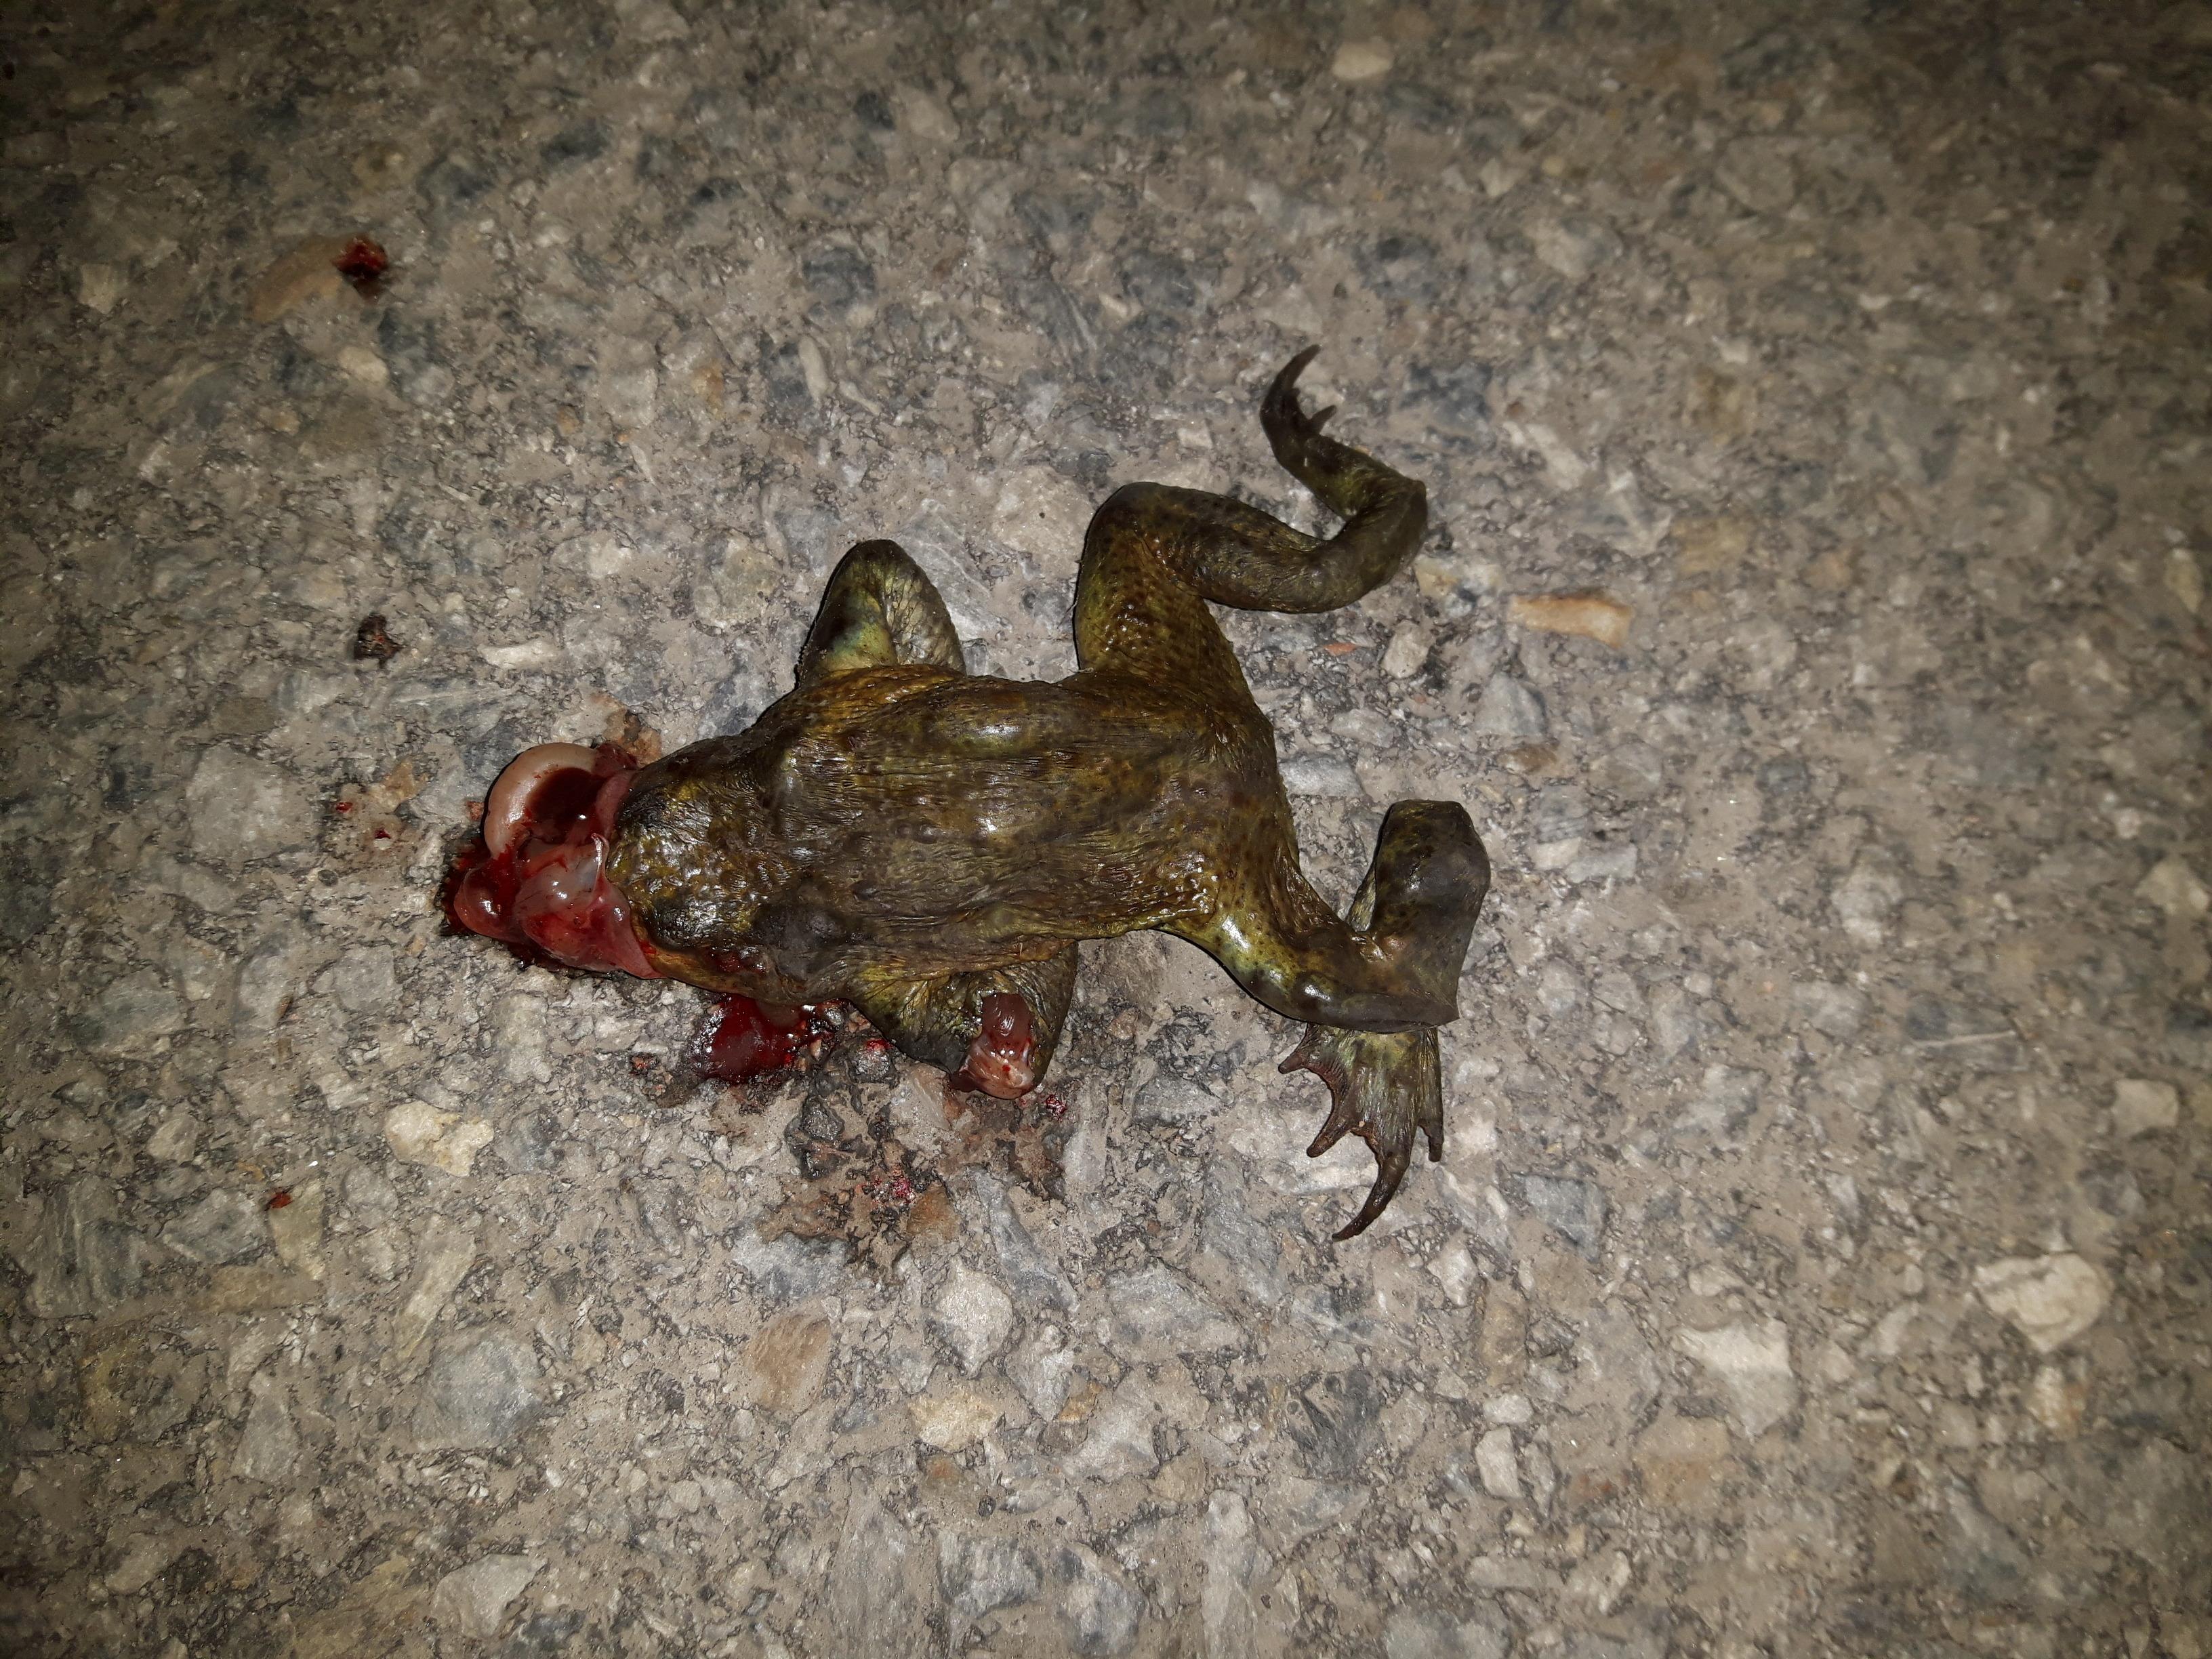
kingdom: Animalia
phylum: Chordata
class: Amphibia
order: Anura
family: Bufonidae
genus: Bufo
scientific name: Bufo bufo
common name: Common toad
